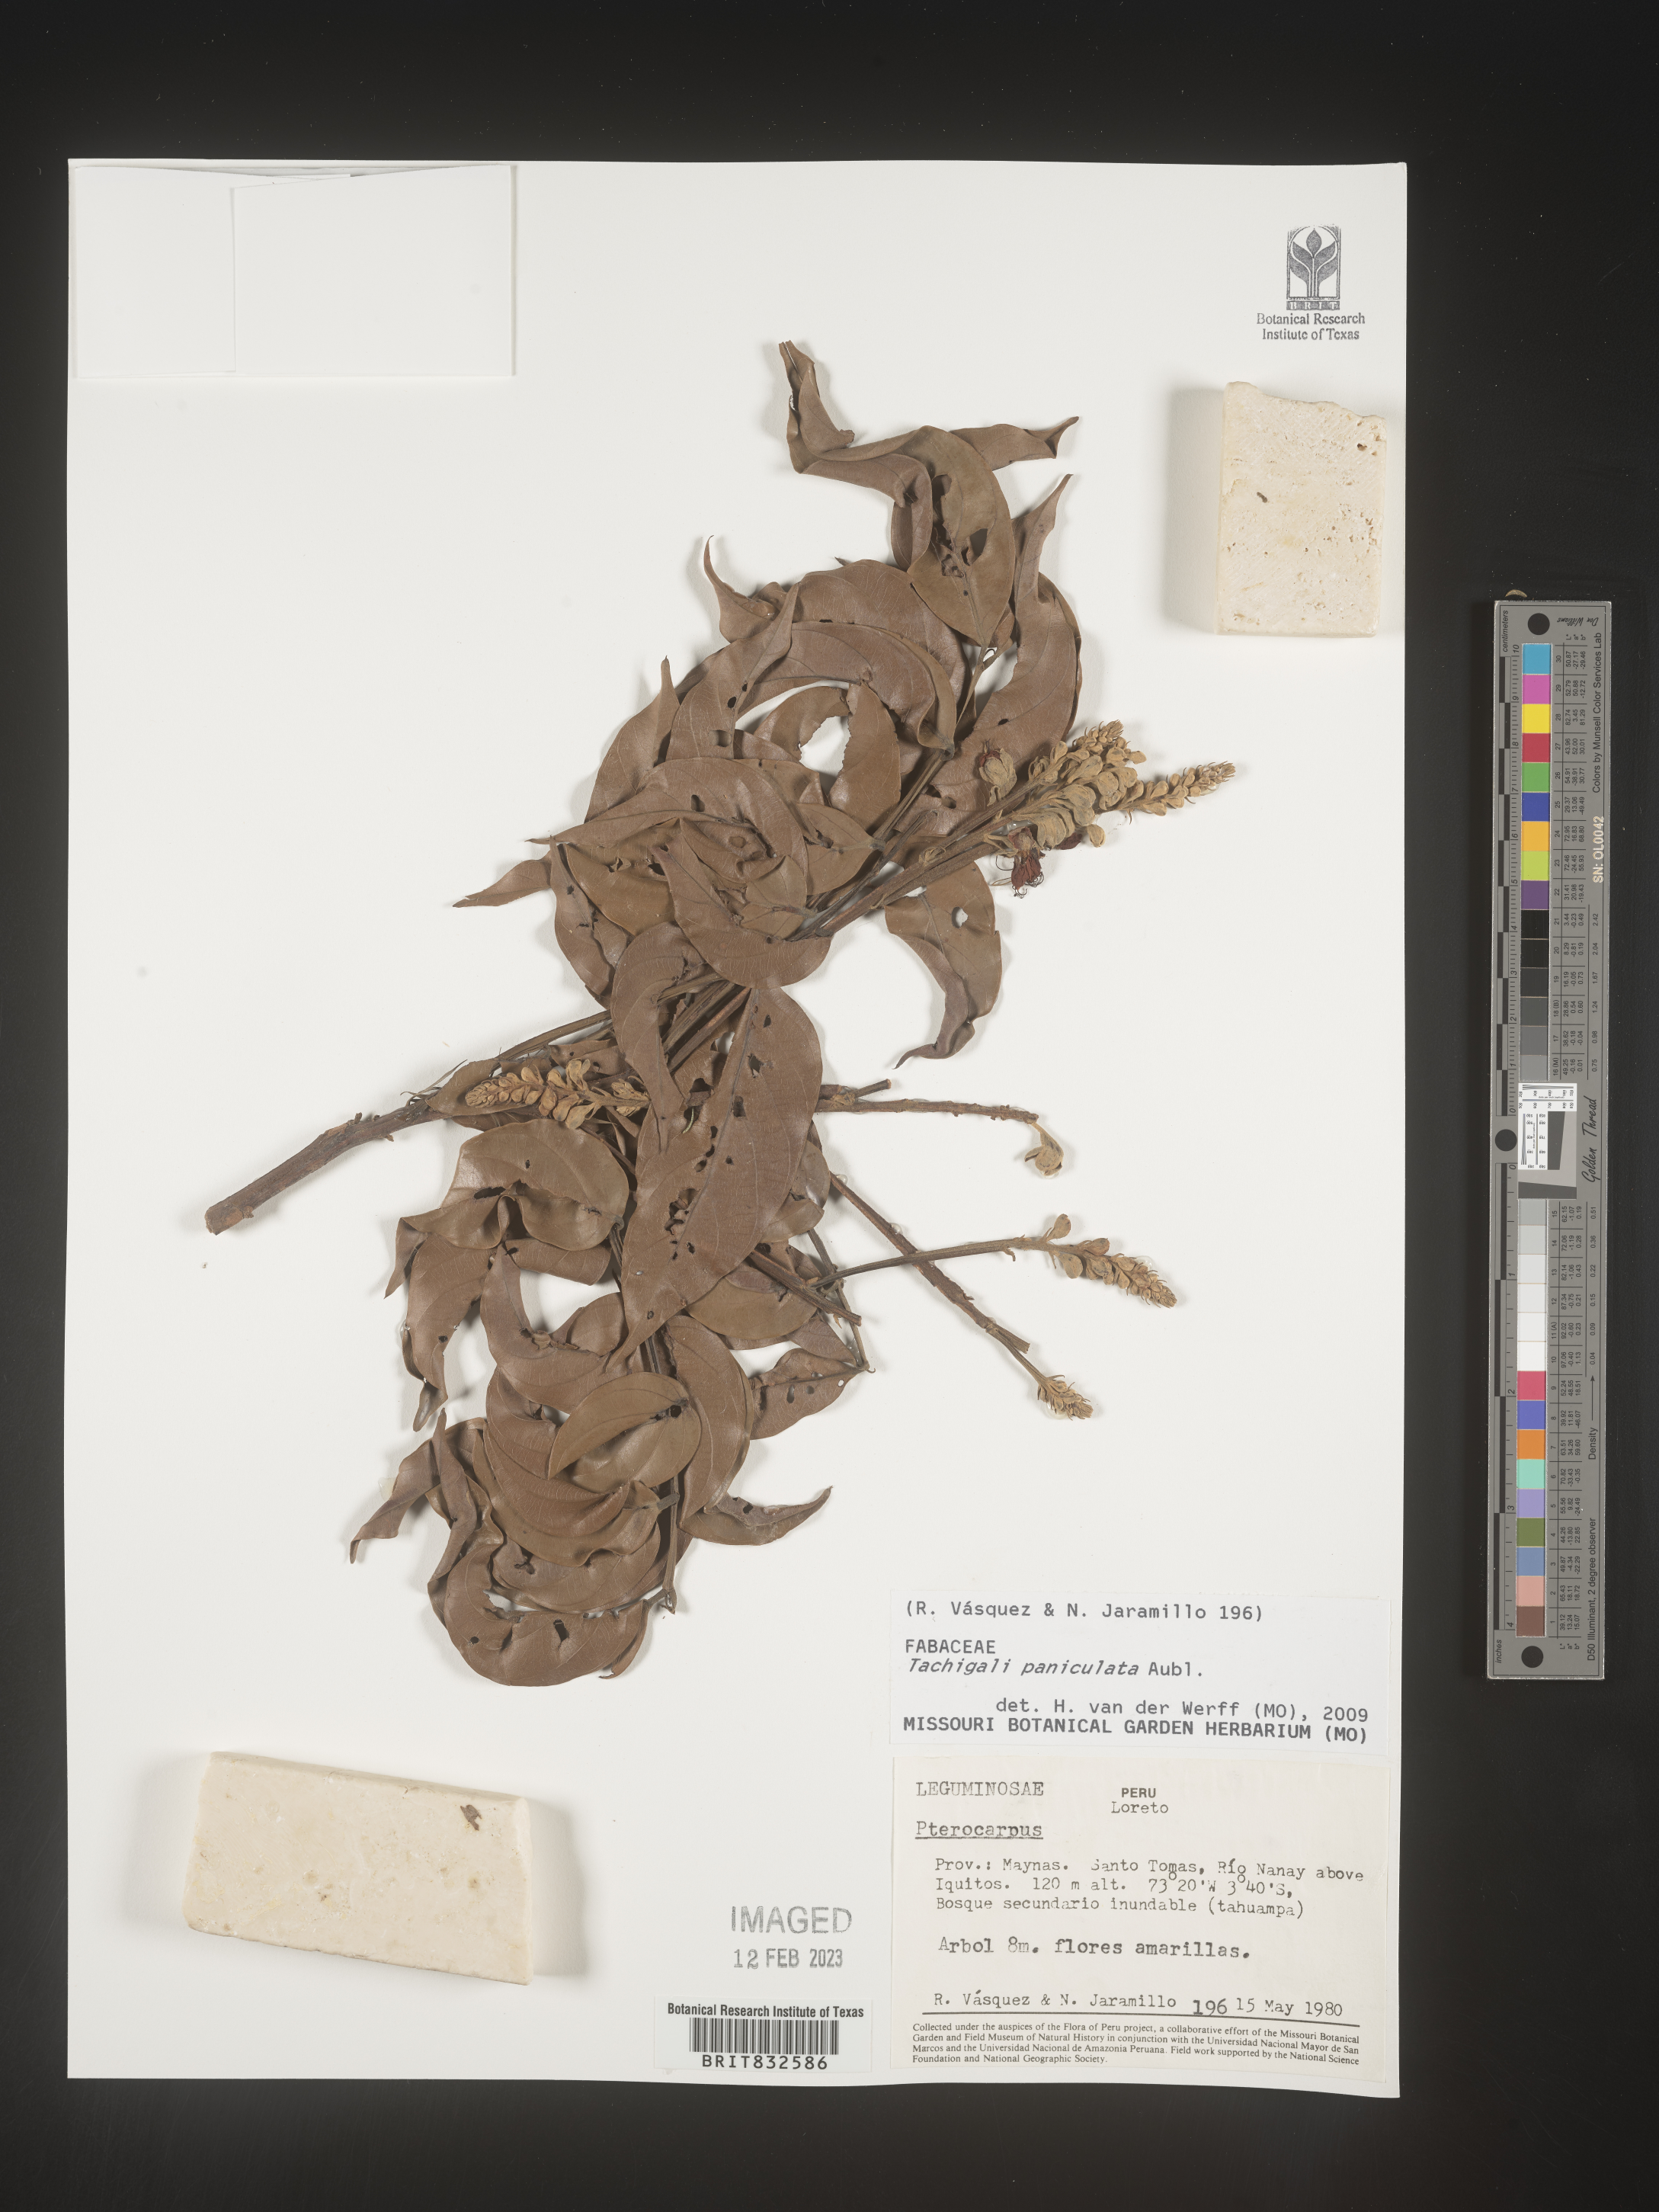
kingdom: Plantae
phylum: Tracheophyta
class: Magnoliopsida
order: Fabales
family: Fabaceae
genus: Tachigali
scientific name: Tachigali
